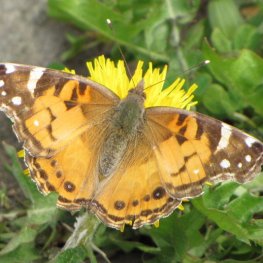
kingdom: Animalia
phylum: Arthropoda
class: Insecta
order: Lepidoptera
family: Nymphalidae
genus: Vanessa
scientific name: Vanessa virginiensis
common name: American Lady
